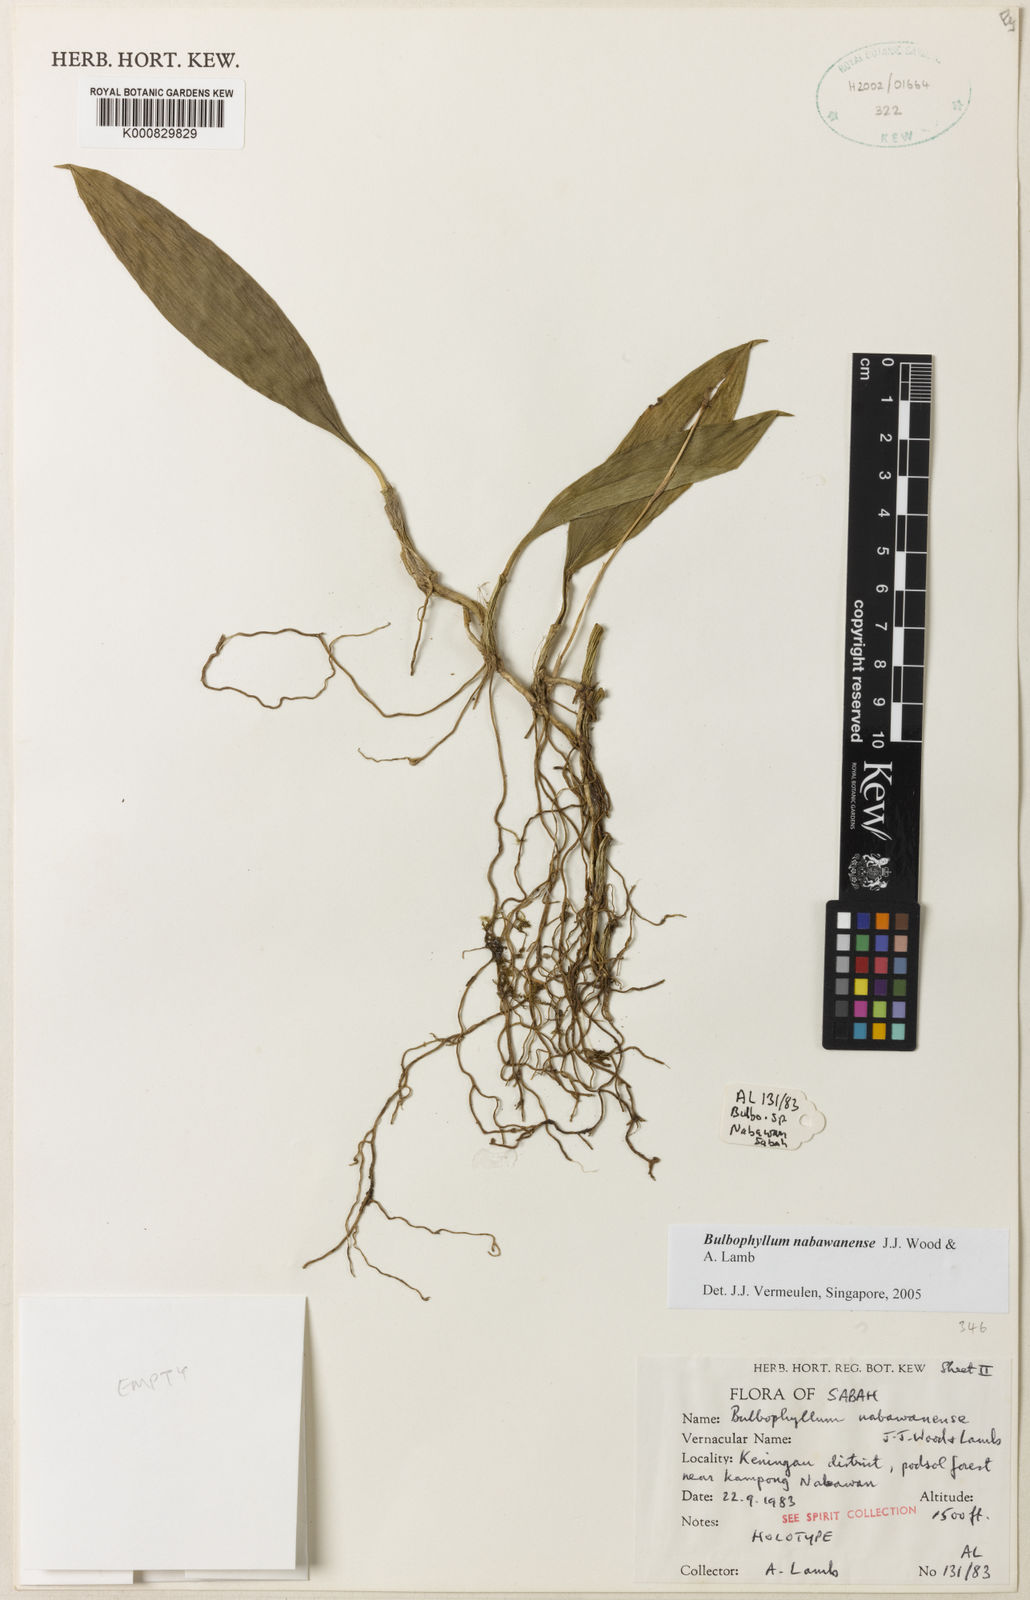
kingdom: Plantae
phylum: Tracheophyta
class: Liliopsida
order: Asparagales
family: Orchidaceae
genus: Bulbophyllum
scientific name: Bulbophyllum nabawanense
